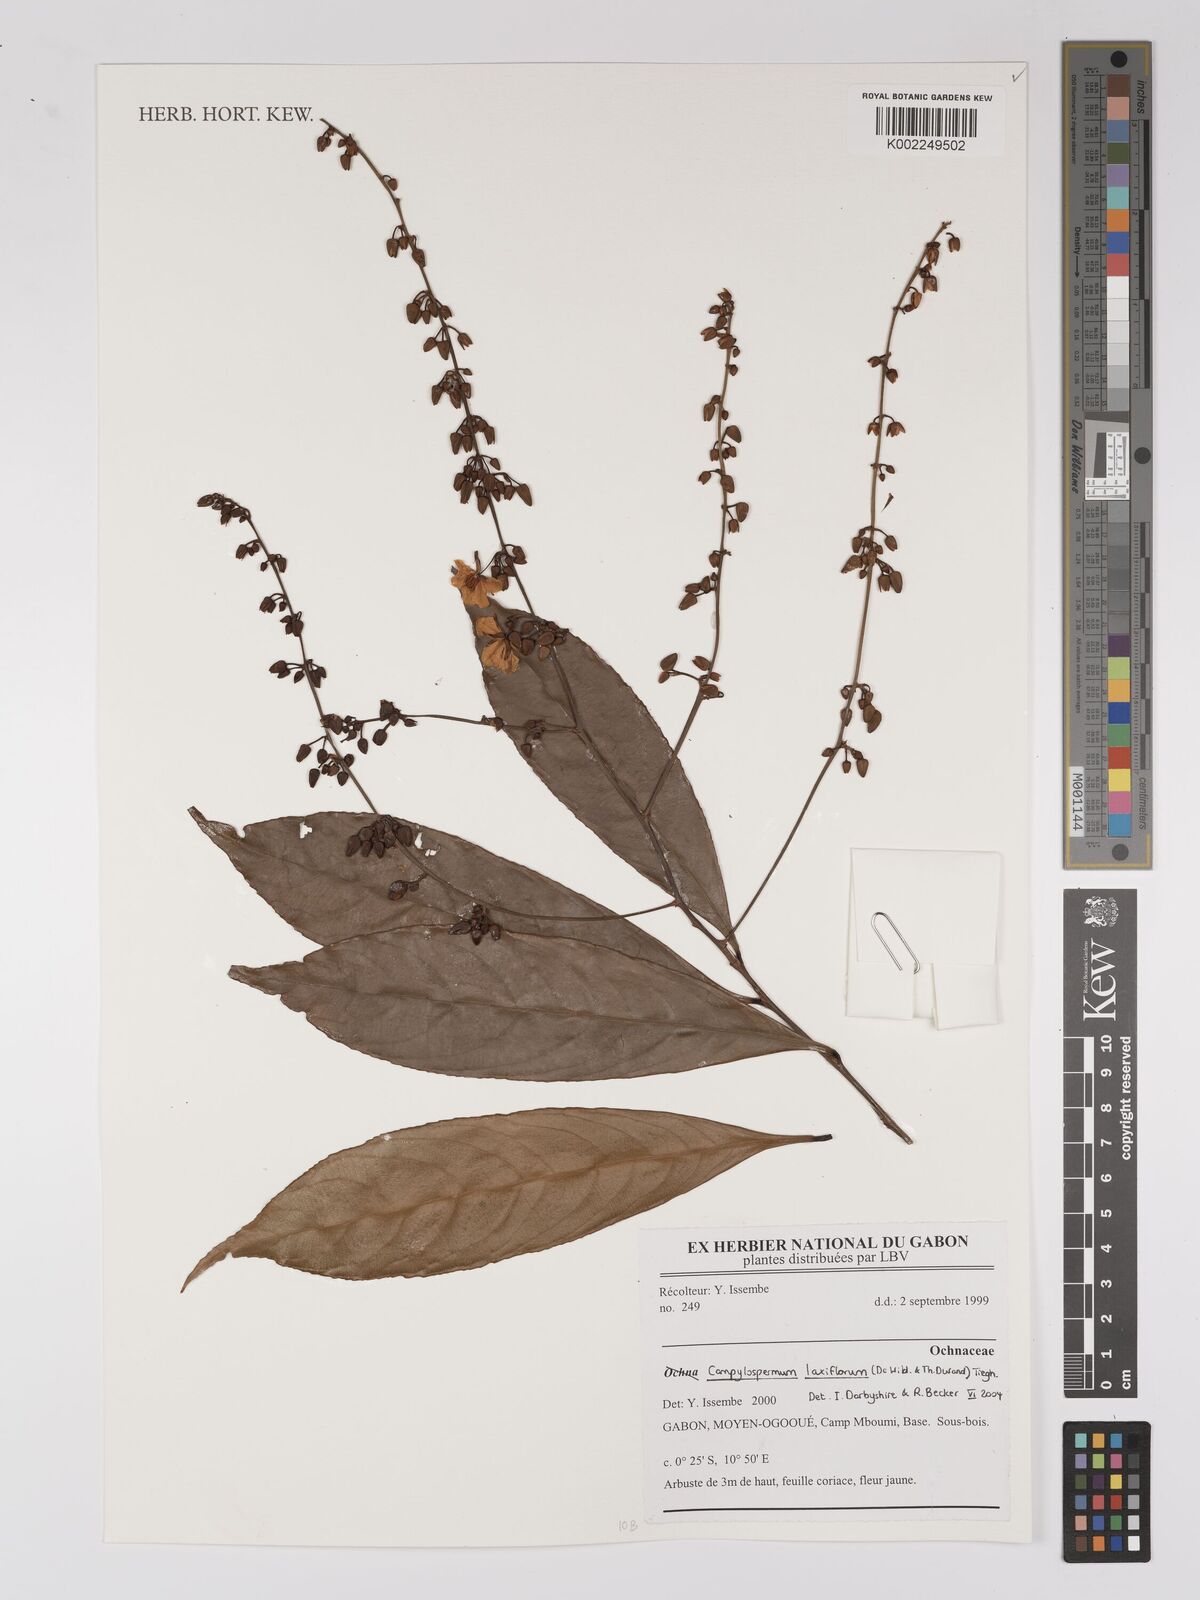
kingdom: Plantae
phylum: Tracheophyta
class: Magnoliopsida
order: Malpighiales
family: Ochnaceae
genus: Campylospermum
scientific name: Campylospermum laxiflorum
